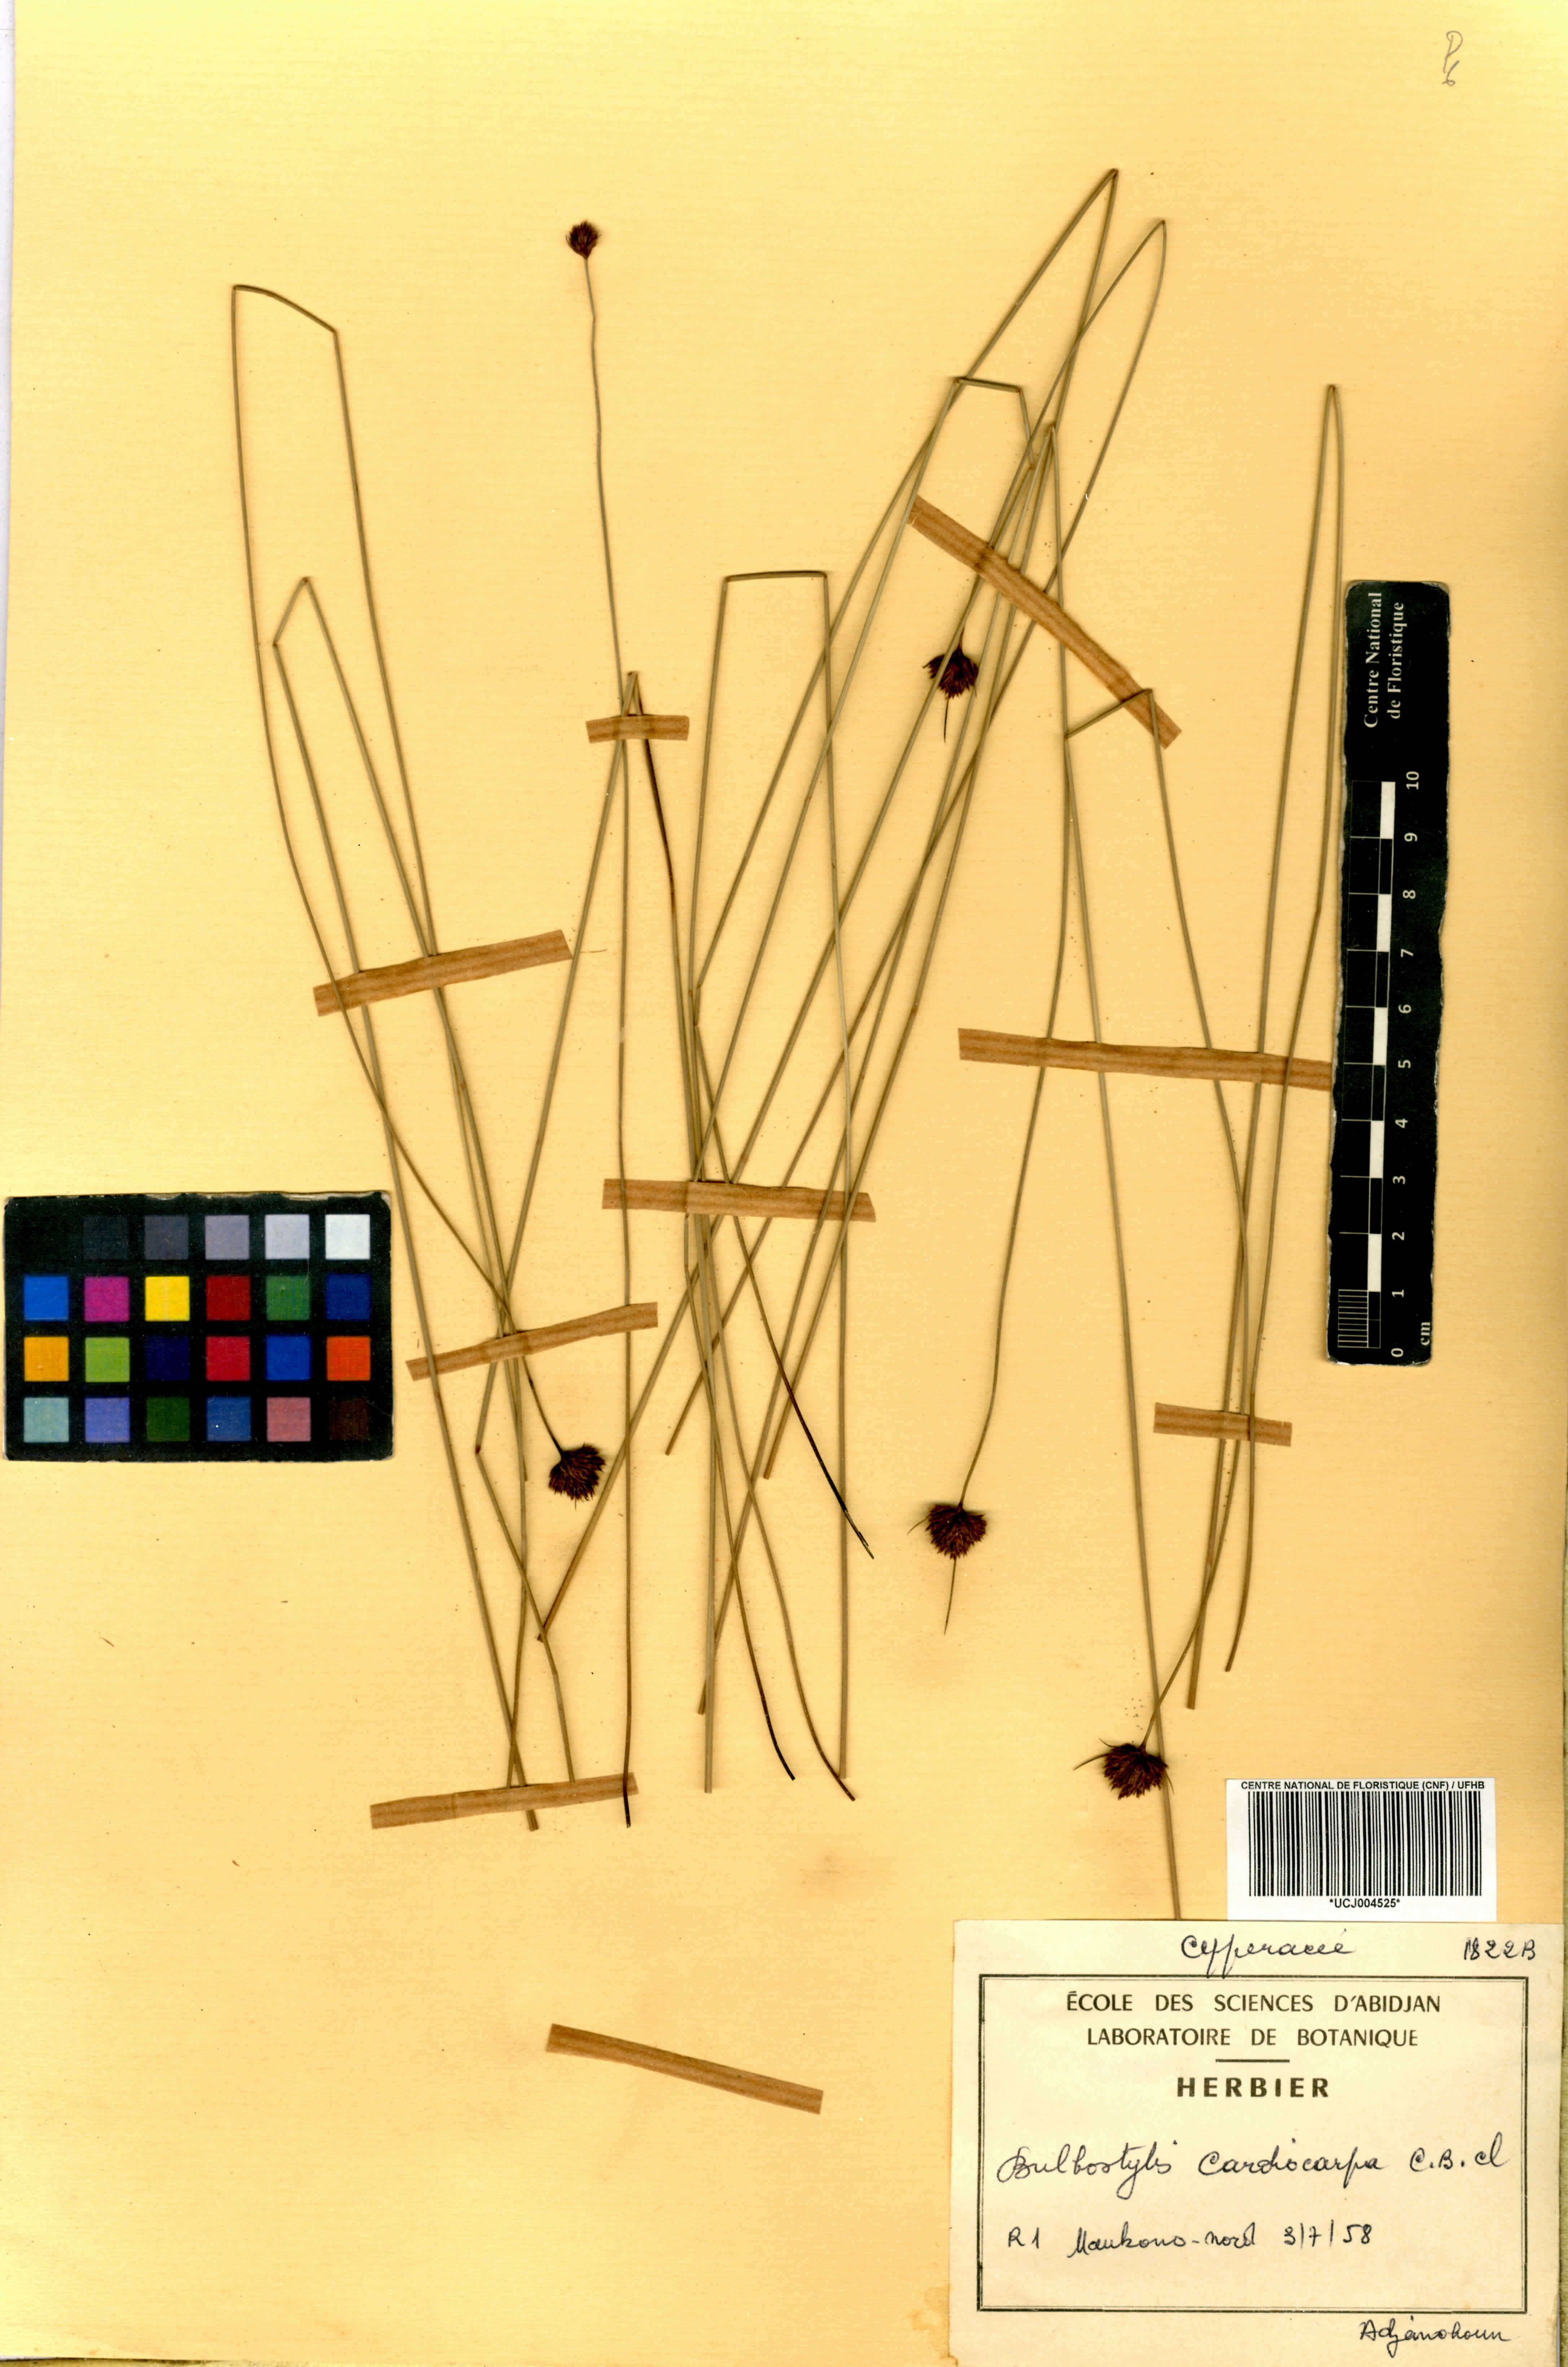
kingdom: Plantae
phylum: Tracheophyta
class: Liliopsida
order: Poales
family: Cyperaceae
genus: Bulbostylis
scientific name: Bulbostylis filamentosa
